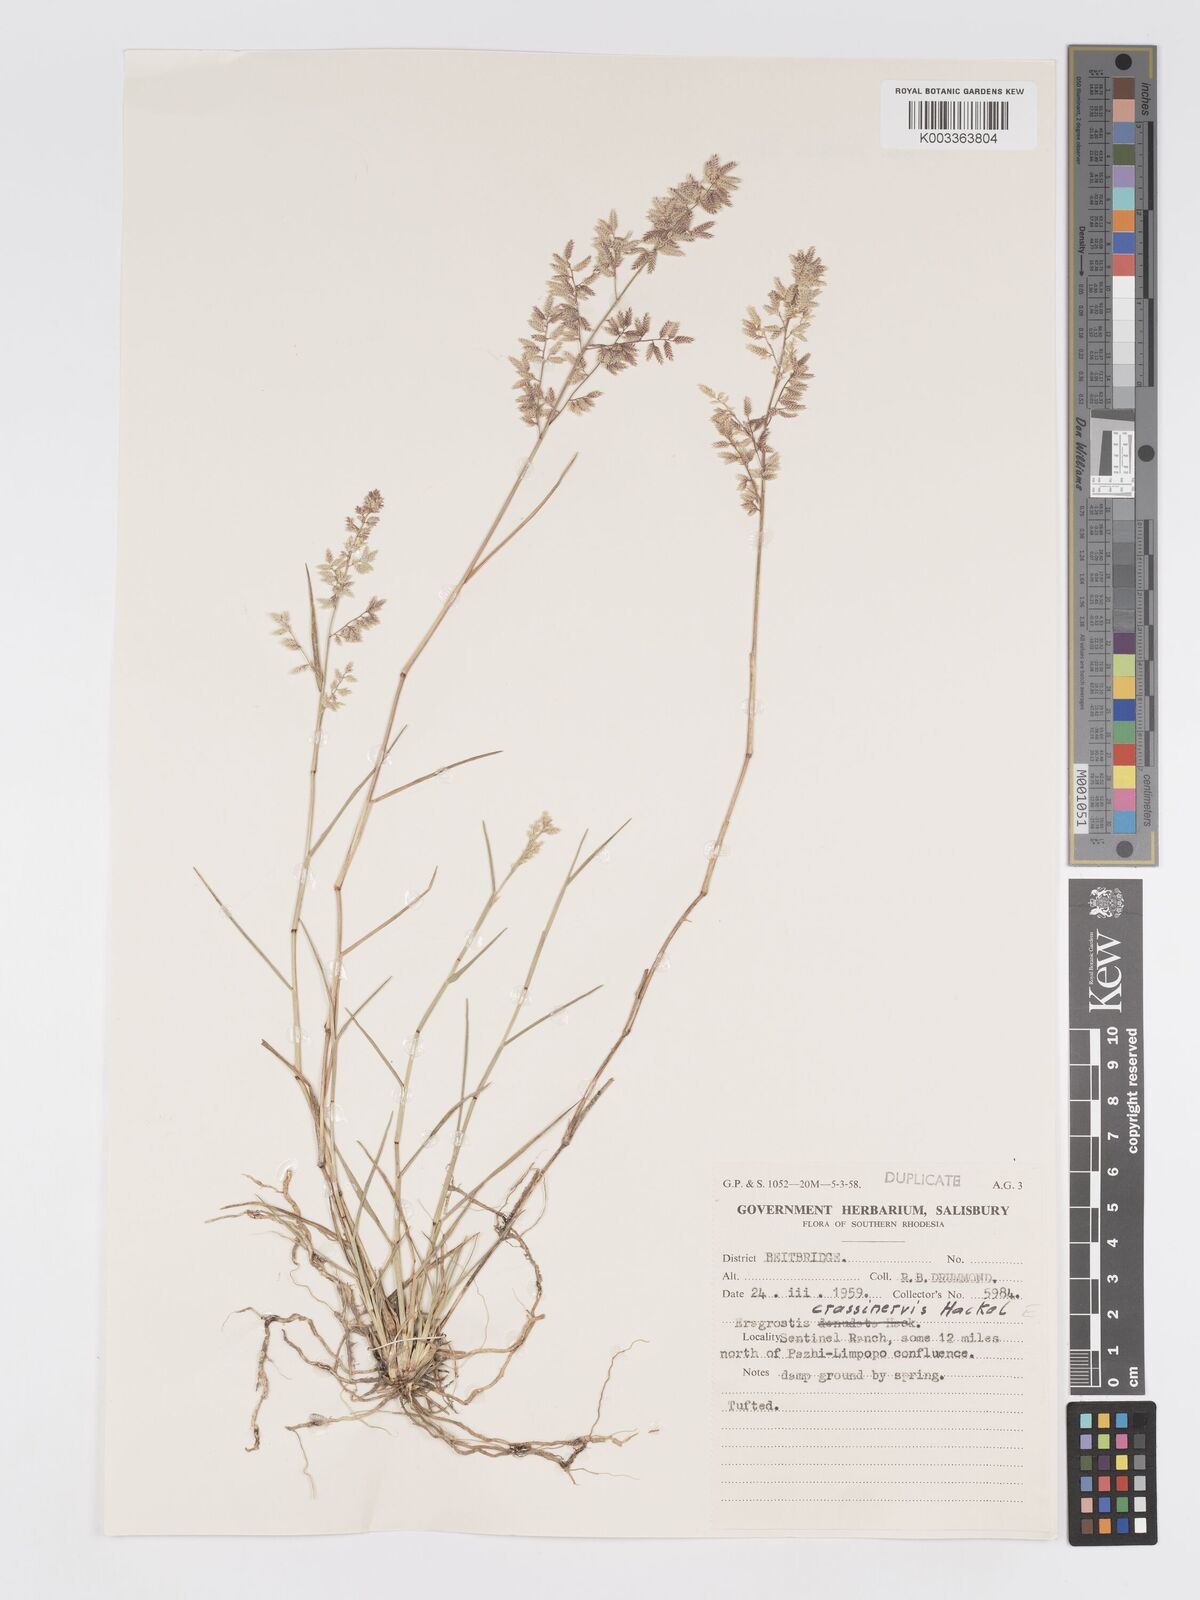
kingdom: Plantae
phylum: Tracheophyta
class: Liliopsida
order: Poales
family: Poaceae
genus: Eragrostis
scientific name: Eragrostis crassinervis
